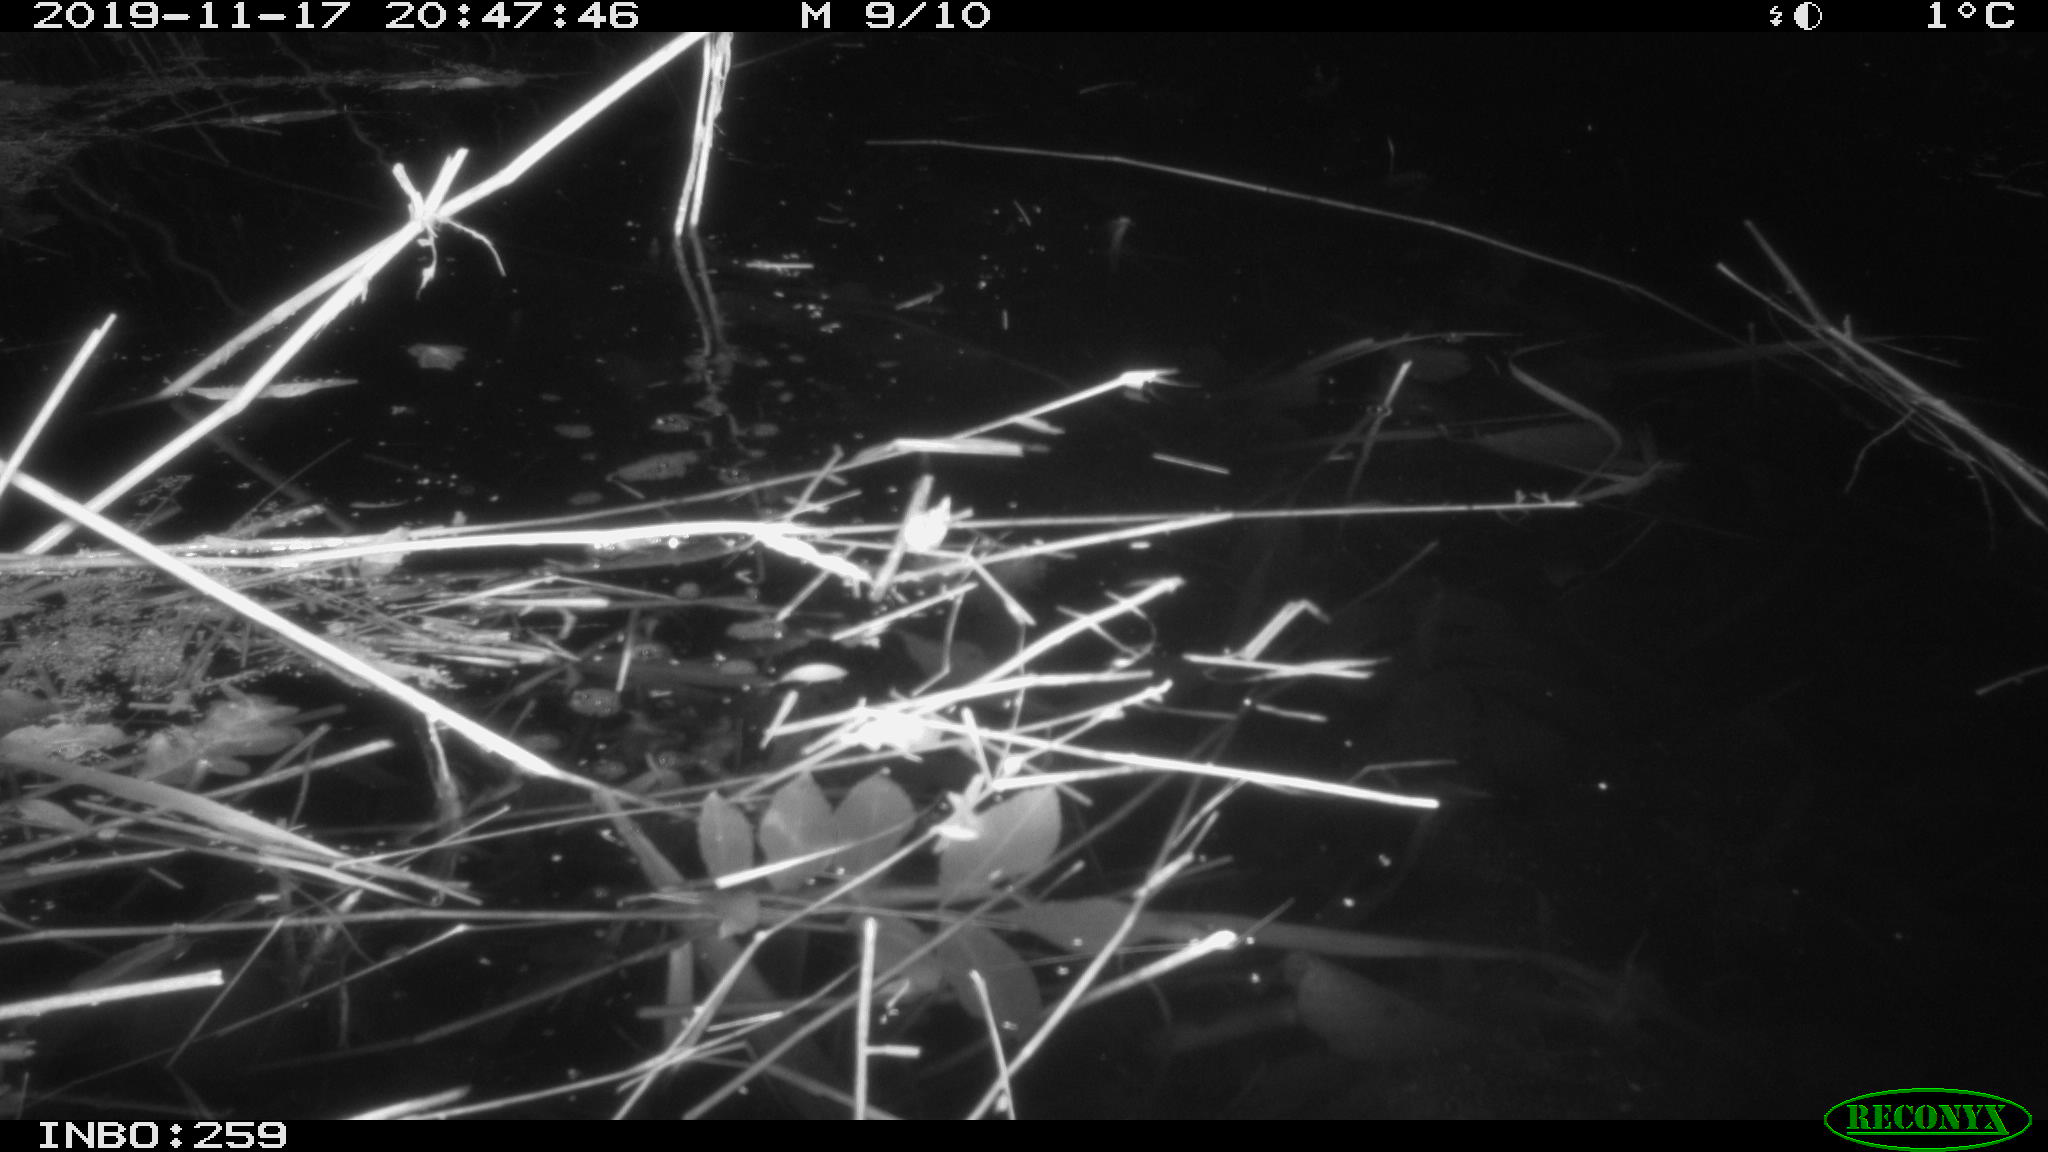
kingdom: Animalia
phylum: Chordata
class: Mammalia
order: Rodentia
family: Cricetidae
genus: Ondatra
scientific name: Ondatra zibethicus
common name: Muskrat
